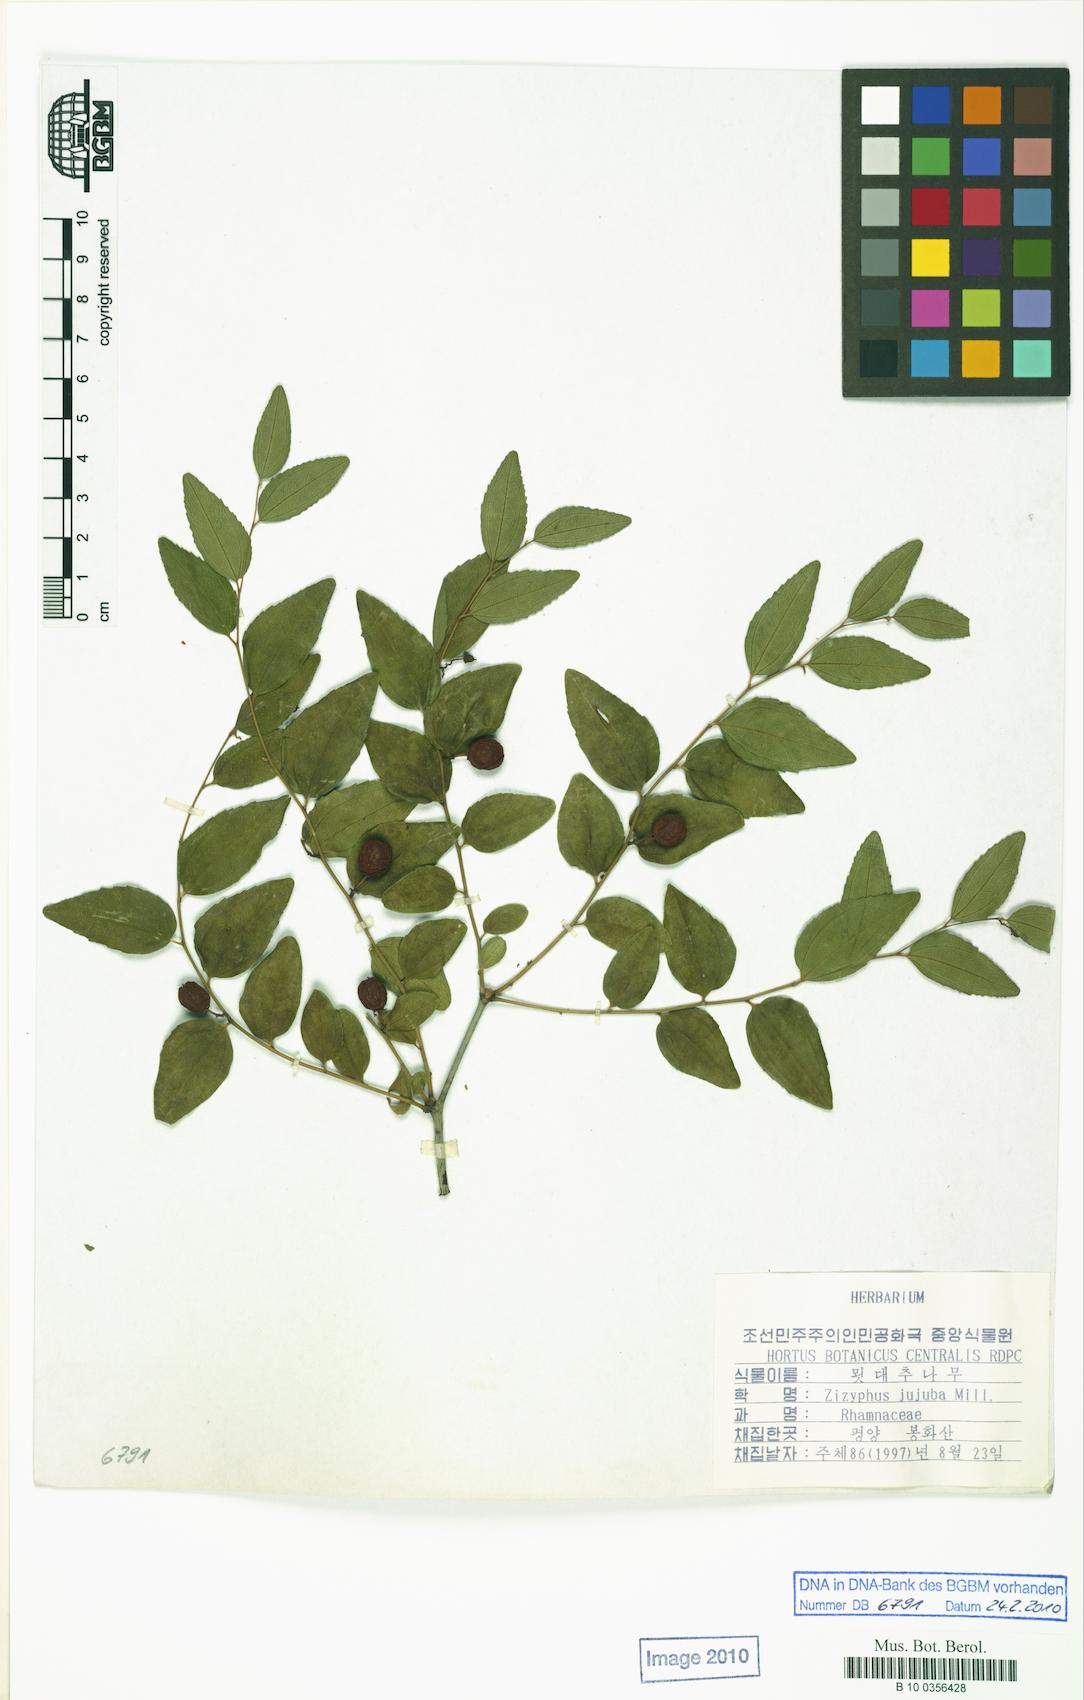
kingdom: Plantae
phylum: Tracheophyta
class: Magnoliopsida
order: Rosales
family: Rhamnaceae
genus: Ziziphus
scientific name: Ziziphus jujuba
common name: Jujube red date
